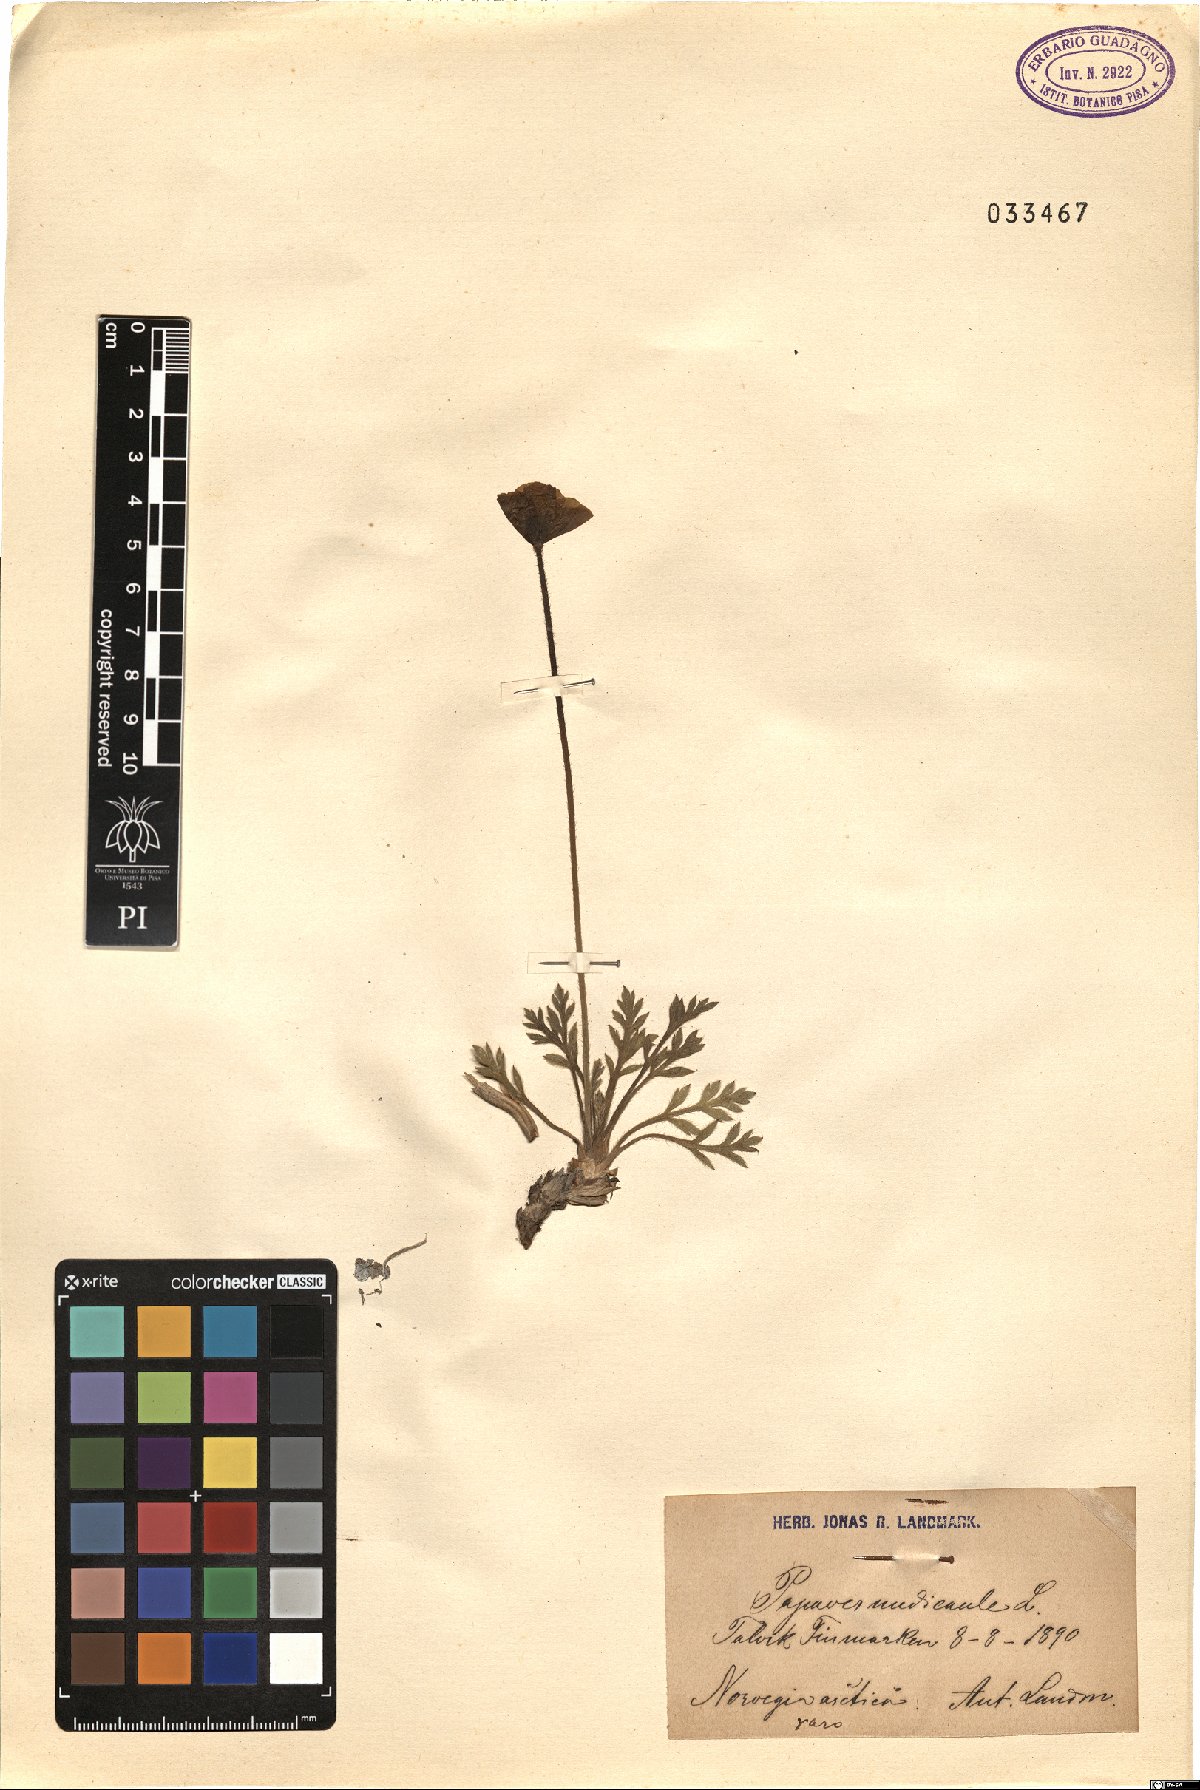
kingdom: Plantae
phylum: Tracheophyta
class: Magnoliopsida
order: Ranunculales
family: Papaveraceae
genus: Papaver
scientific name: Papaver nudicaule
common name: Arctic poppy
